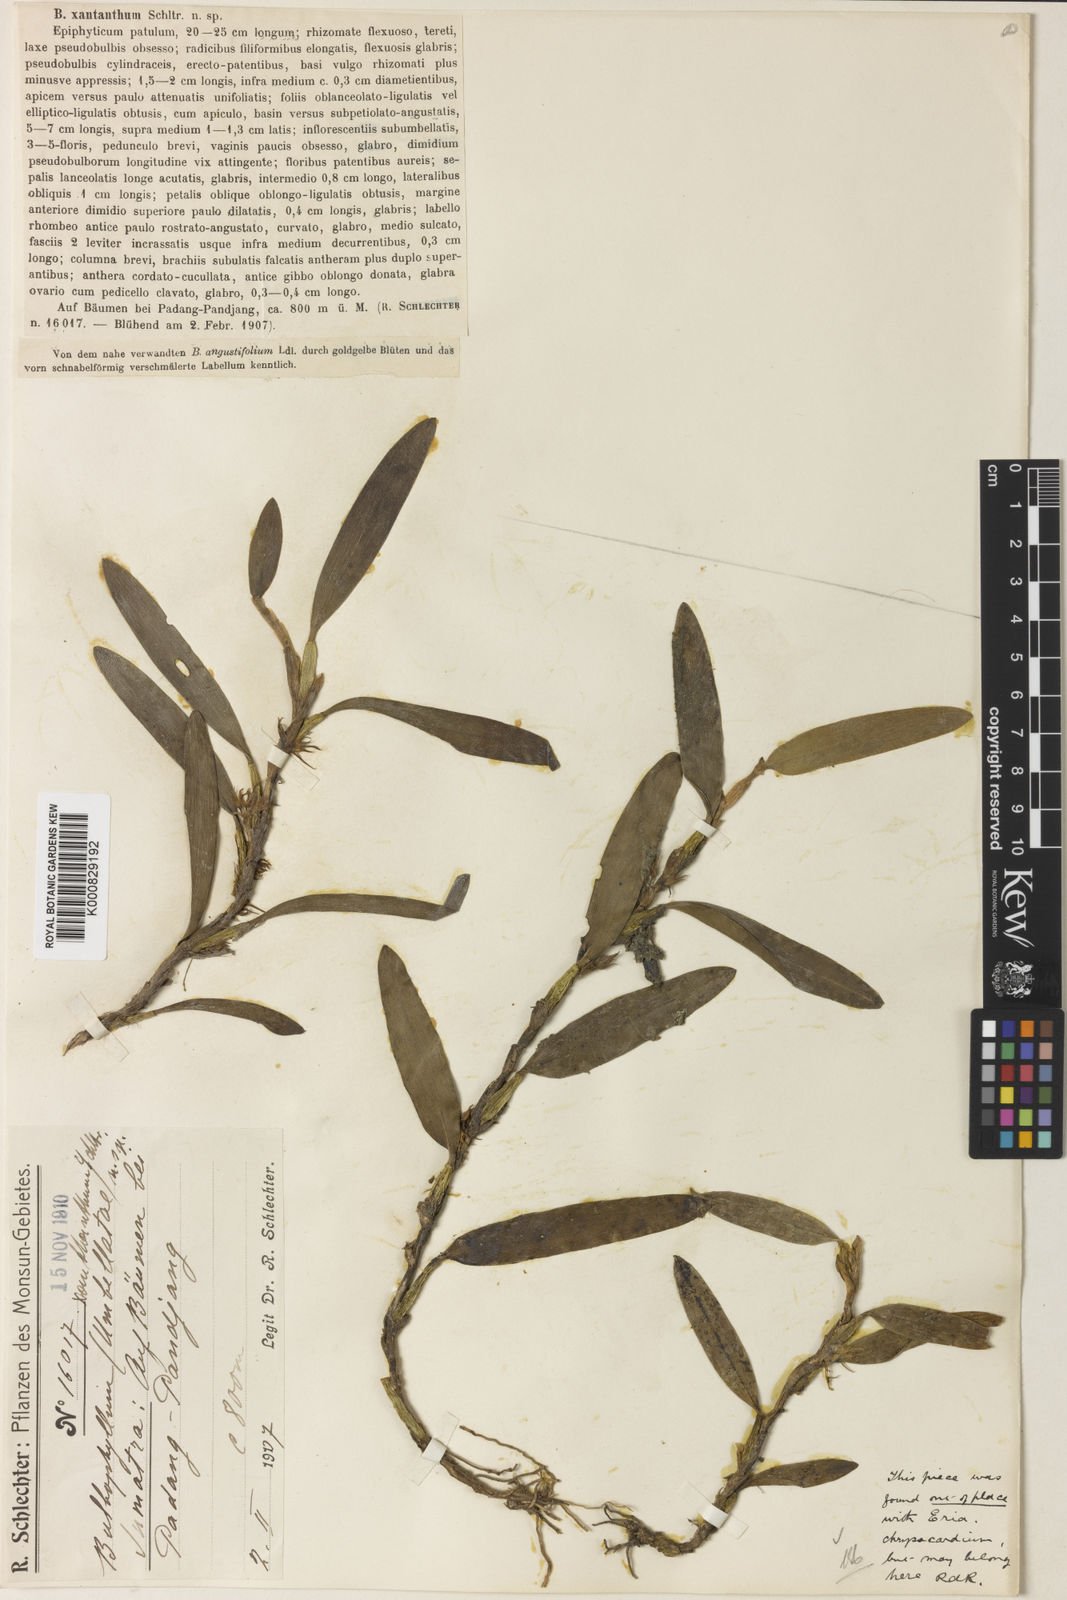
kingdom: Plantae
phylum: Tracheophyta
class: Liliopsida
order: Asparagales
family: Orchidaceae
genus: Bulbophyllum
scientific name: Bulbophyllum xantanthum
